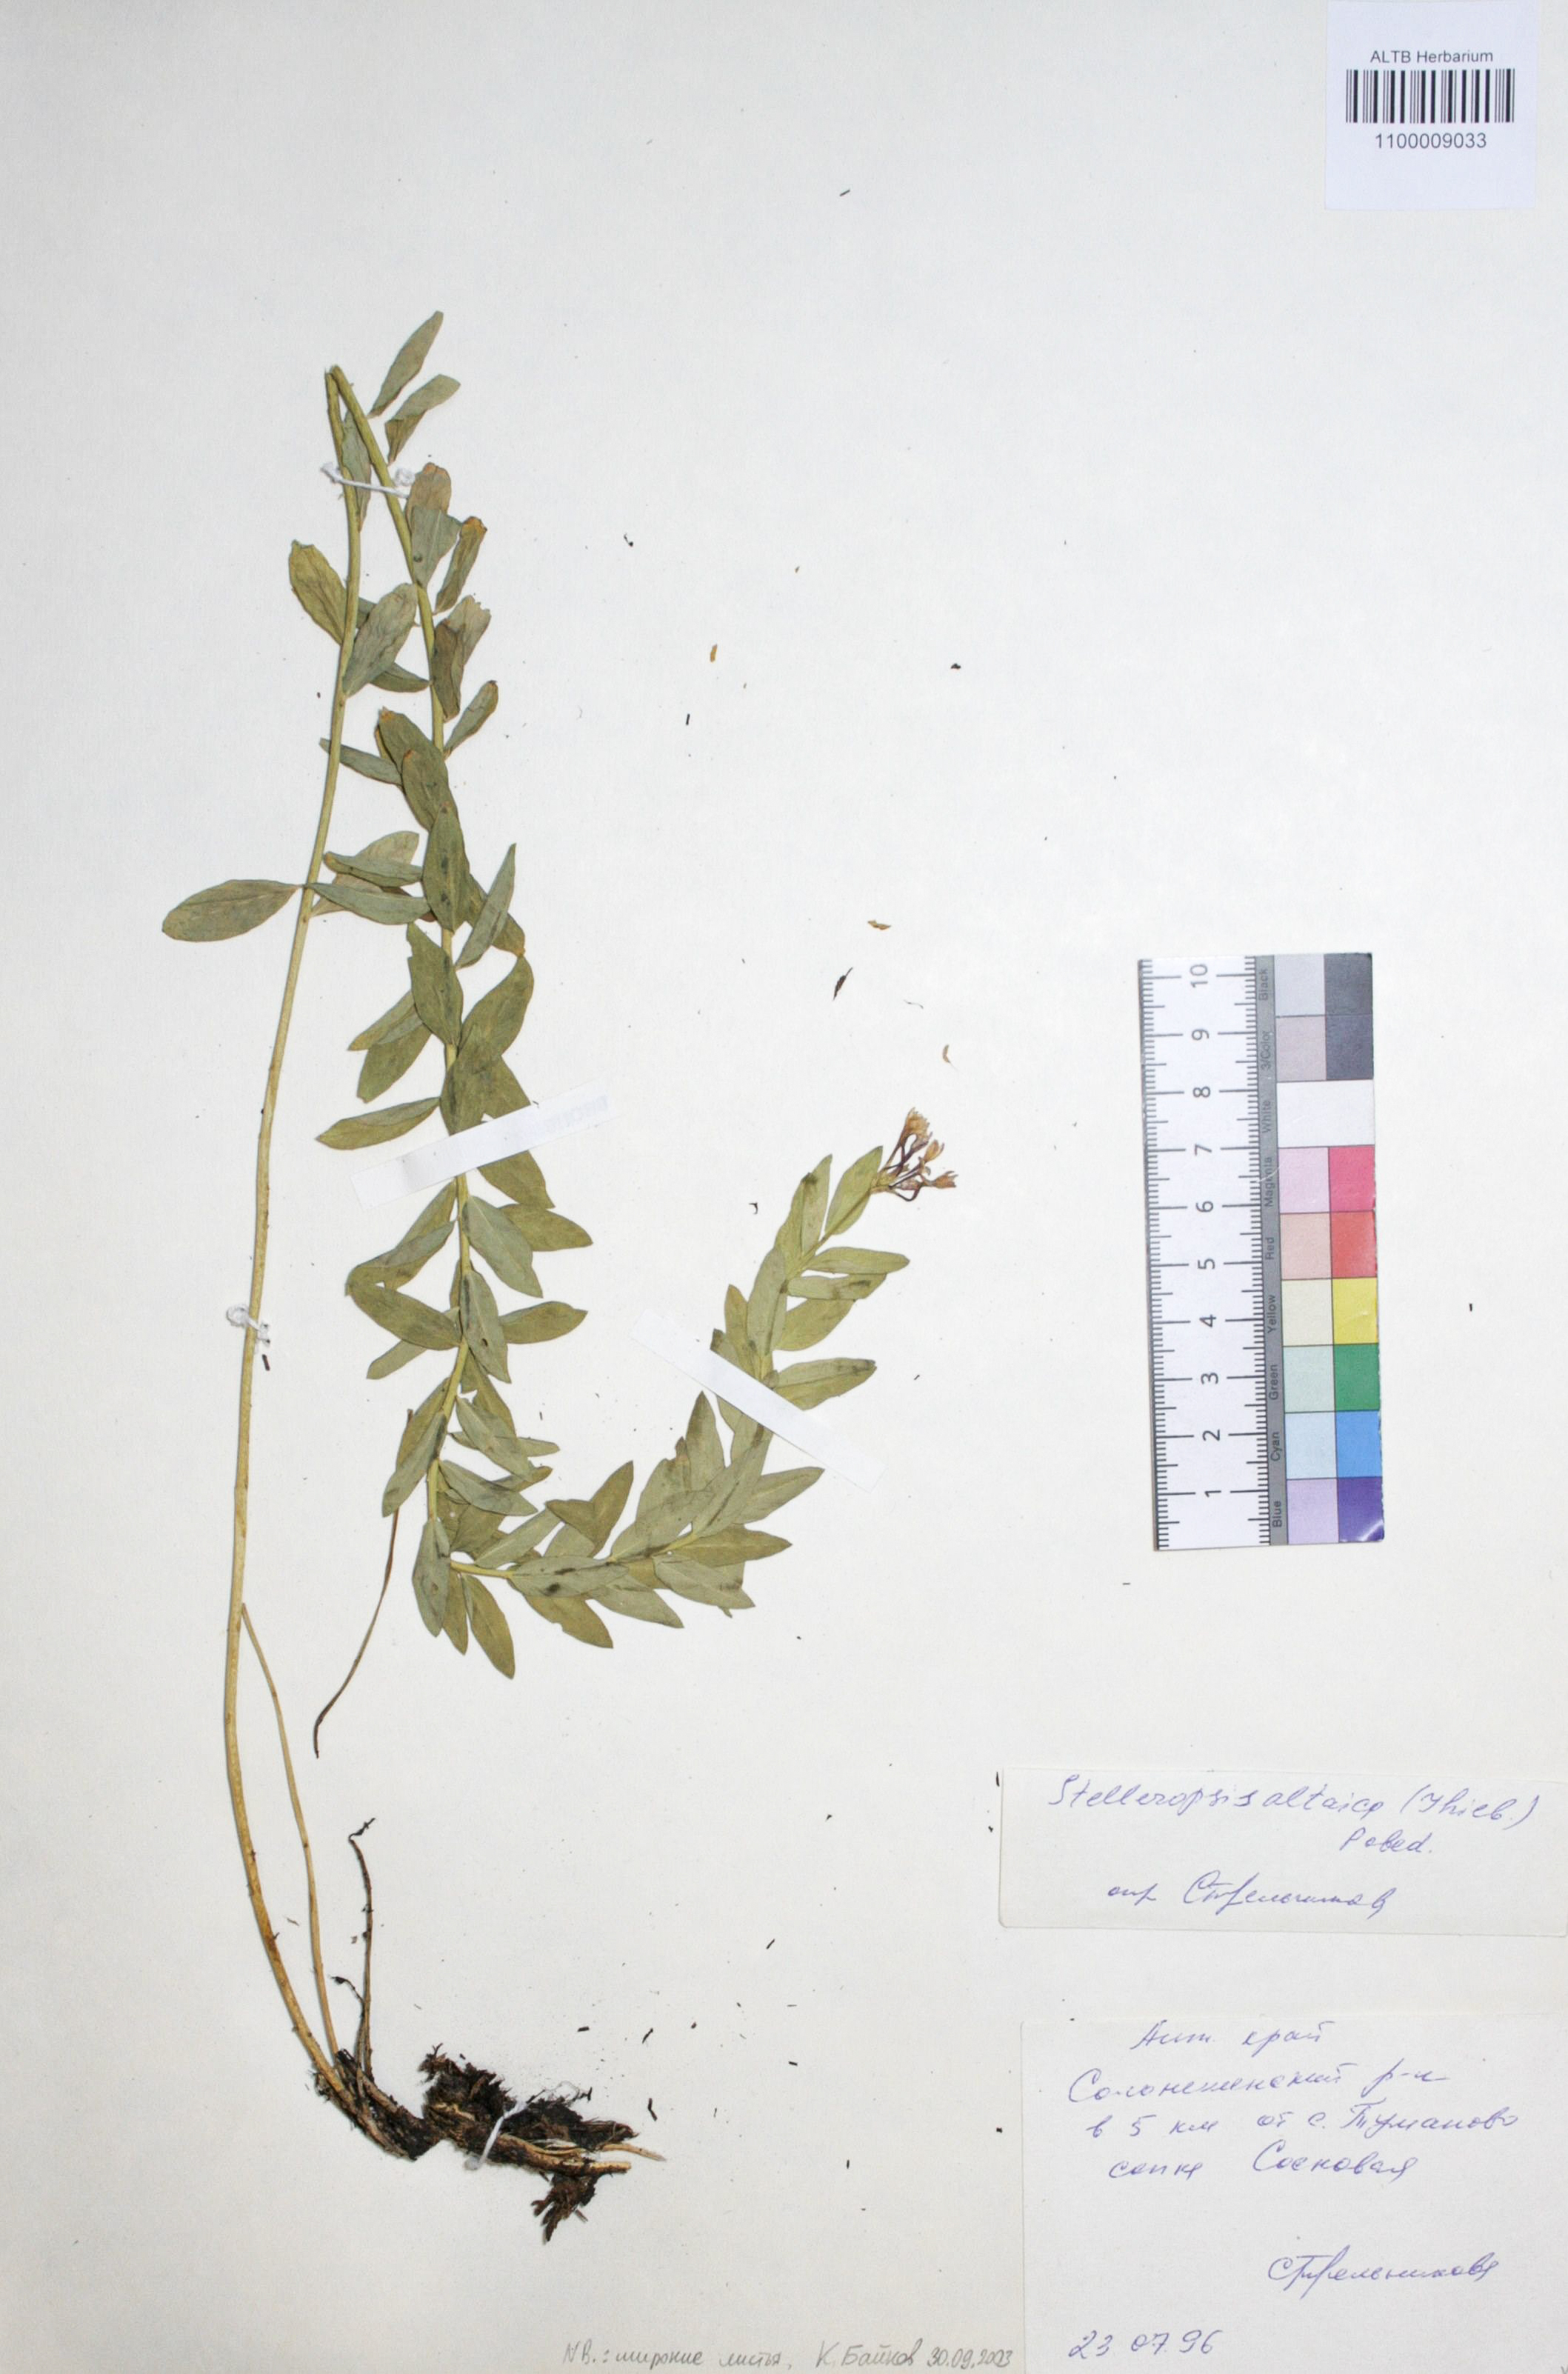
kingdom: Plantae
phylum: Tracheophyta
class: Magnoliopsida
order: Malvales
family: Thymelaeaceae
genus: Diarthron
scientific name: Diarthron altaicum
